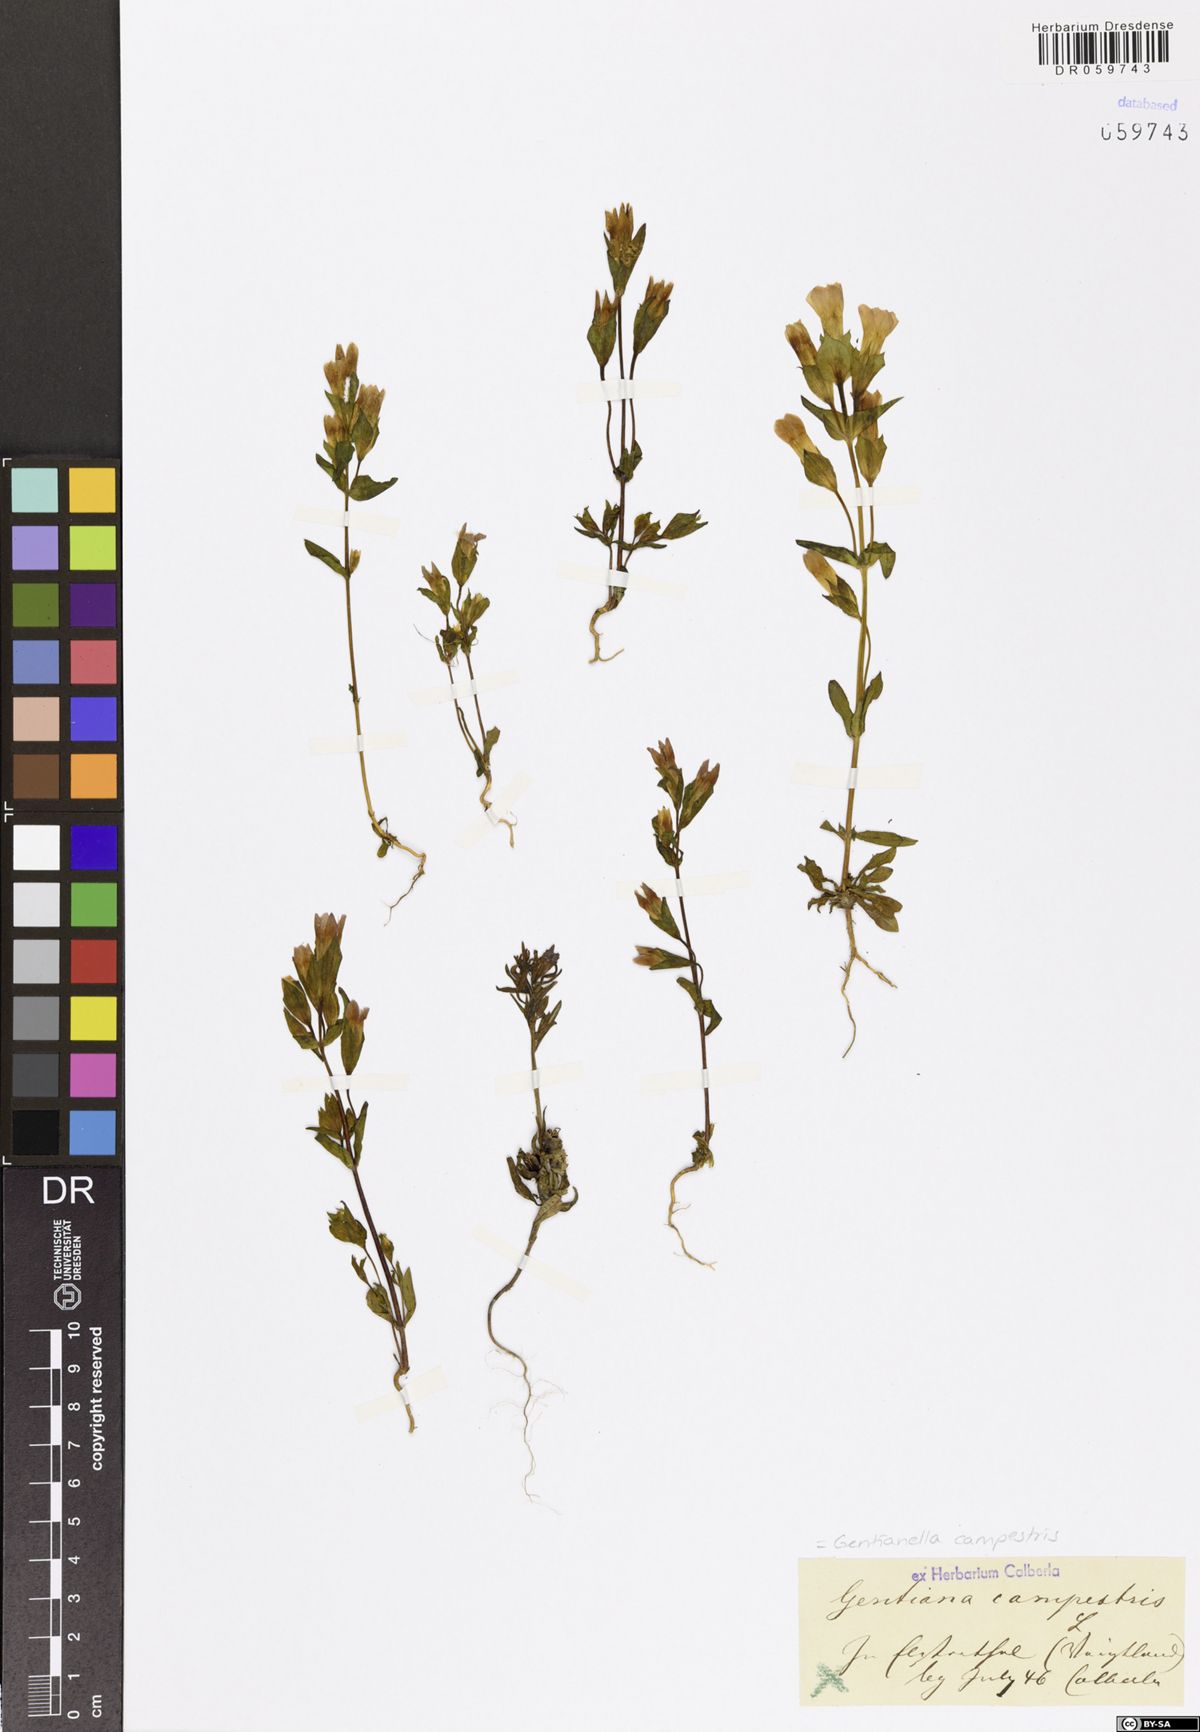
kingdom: Plantae
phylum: Tracheophyta
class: Magnoliopsida
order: Gentianales
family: Gentianaceae
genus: Gentianella
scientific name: Gentianella campestris
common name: Field gentian
